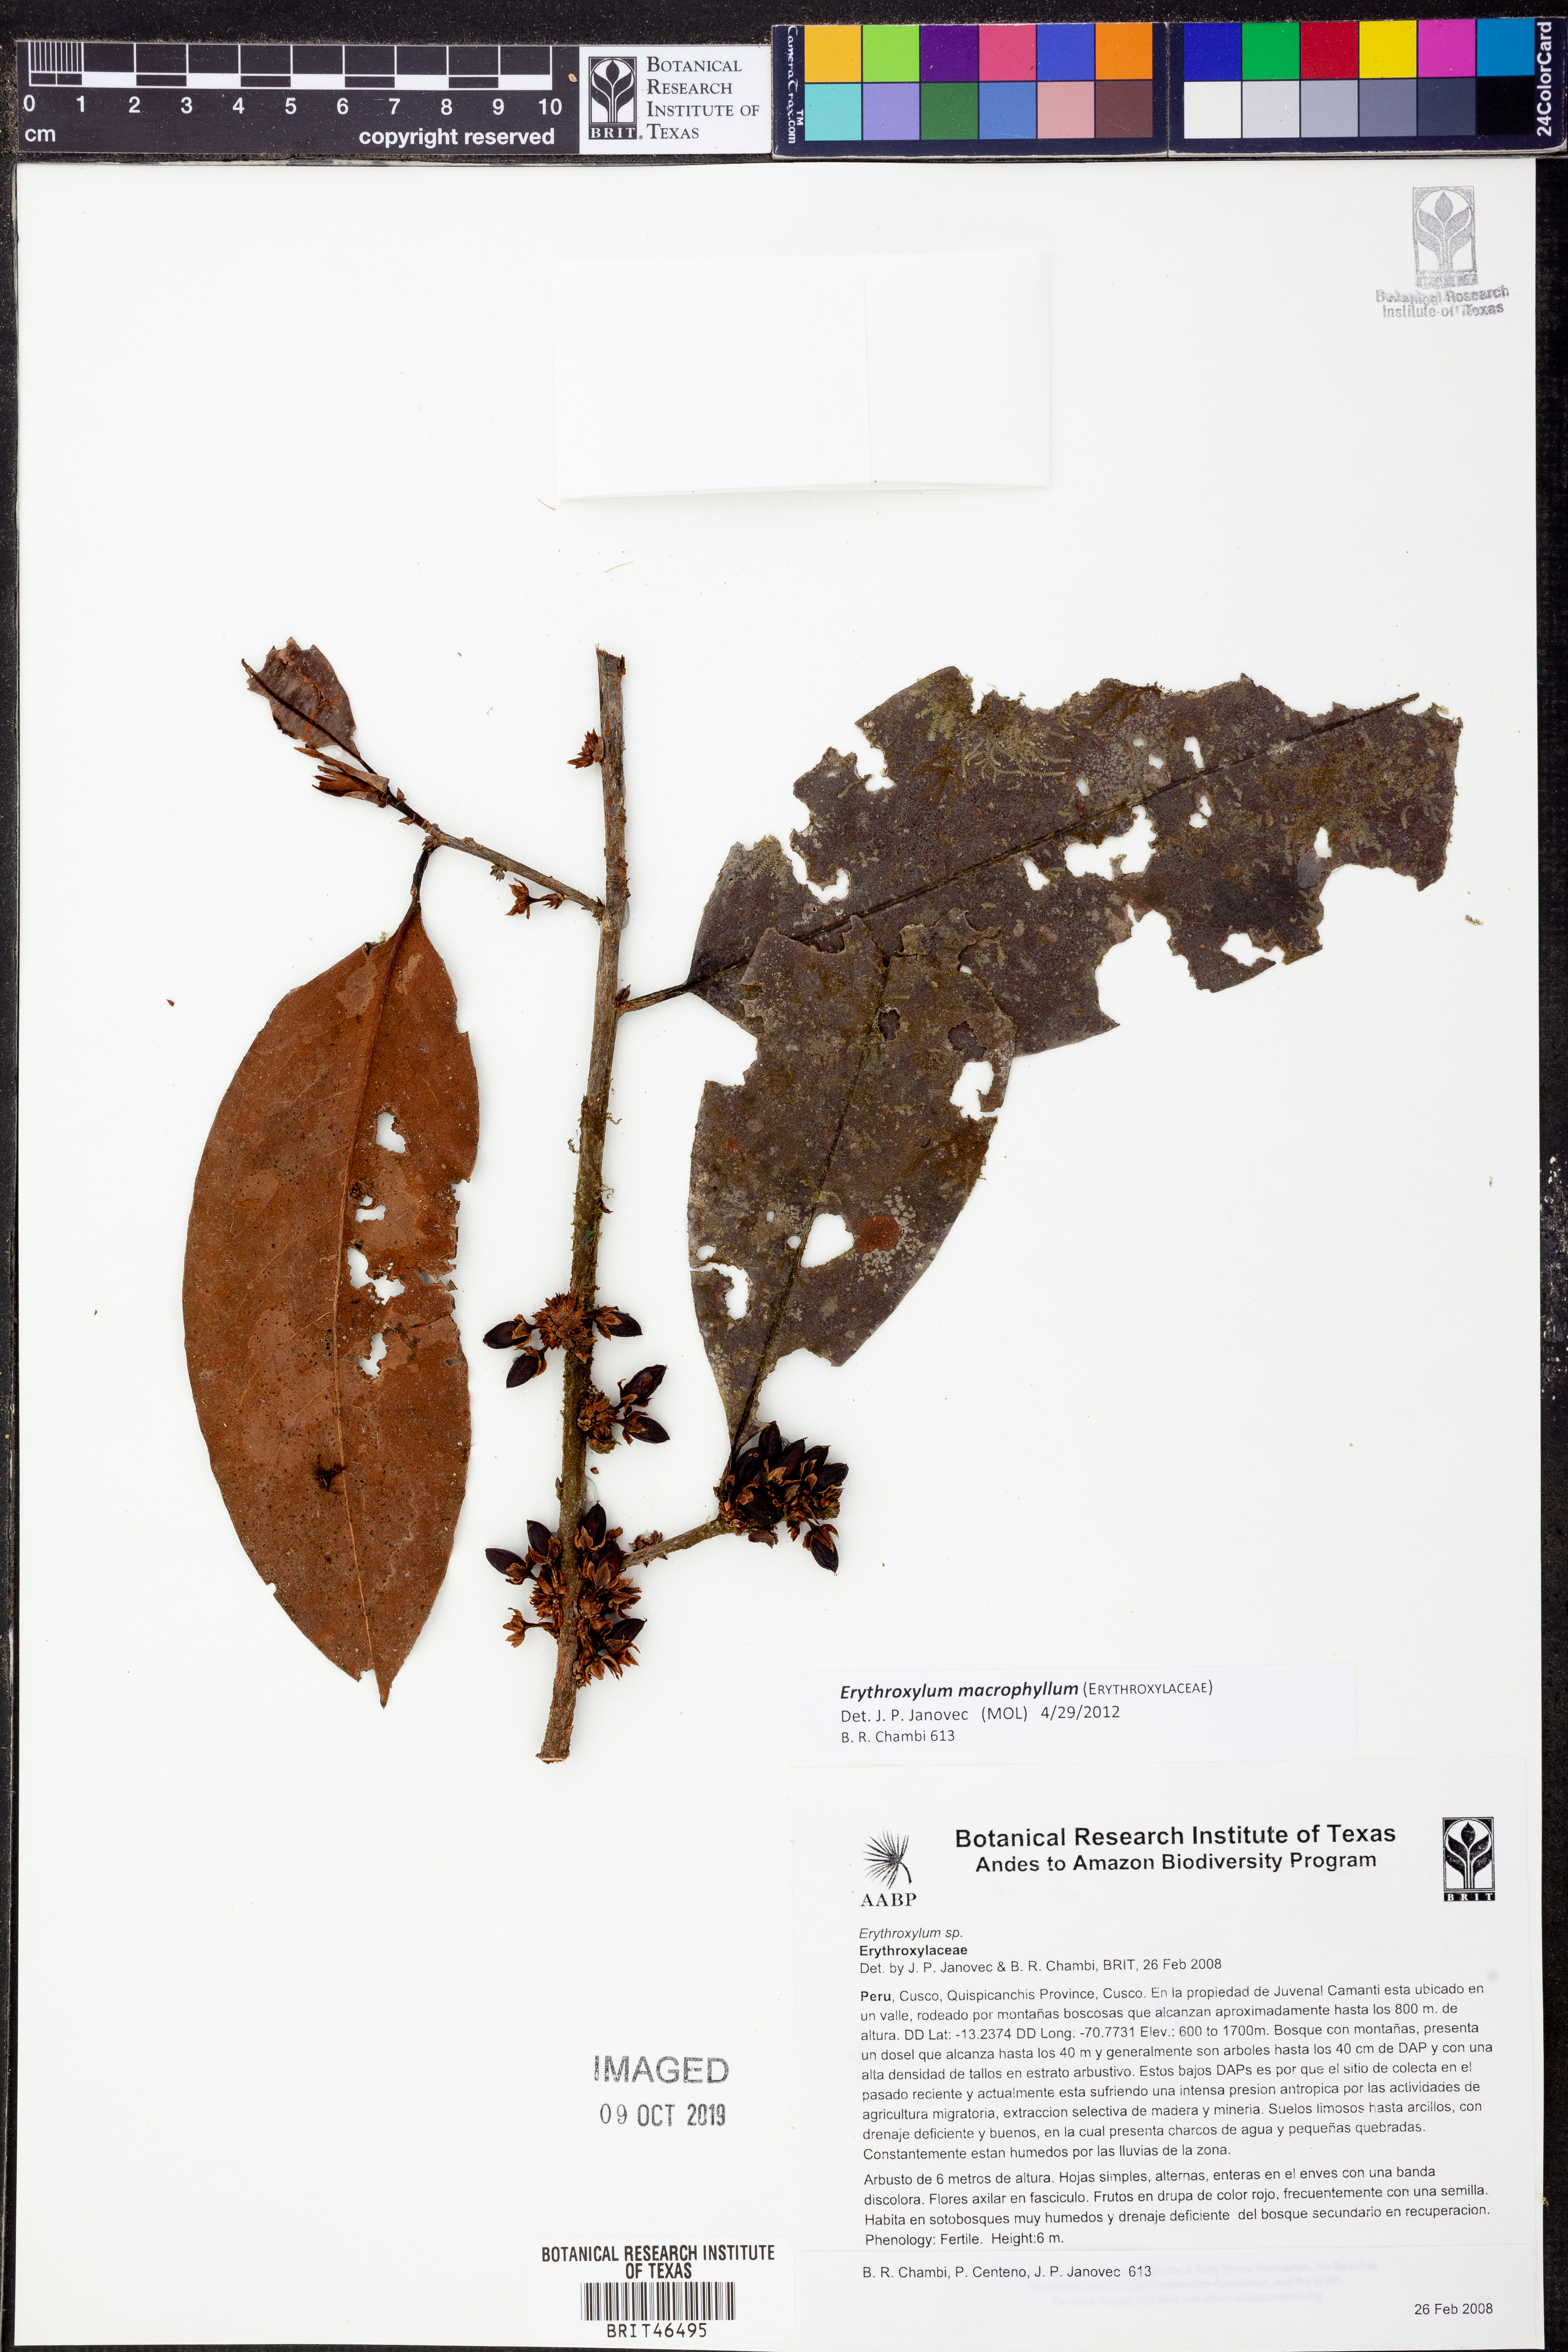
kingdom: Plantae
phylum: Tracheophyta
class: Magnoliopsida
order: Malpighiales
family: Erythroxylaceae
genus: Erythroxylum
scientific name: Erythroxylum
